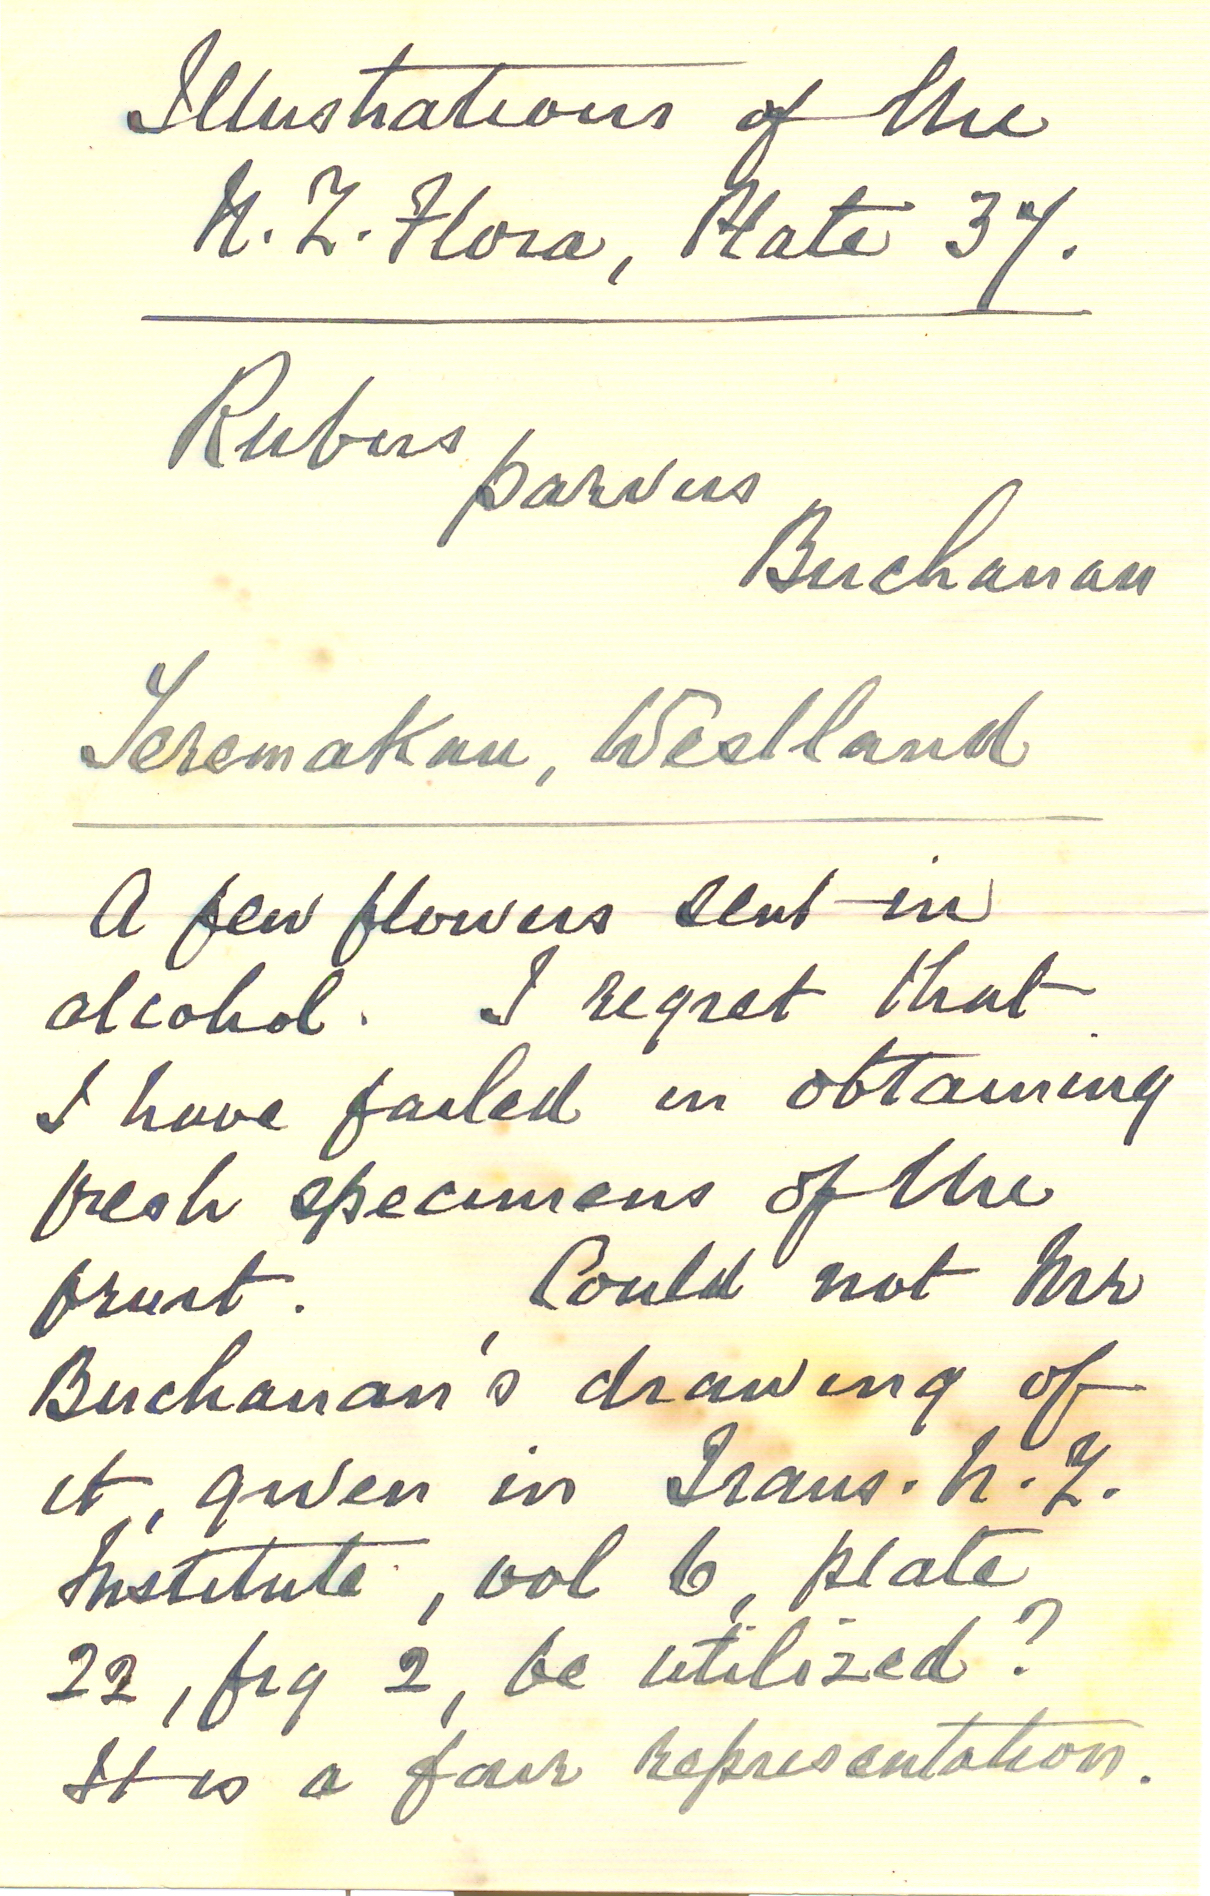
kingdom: Plantae
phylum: Tracheophyta
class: Magnoliopsida
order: Rosales
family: Rosaceae
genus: Rubus
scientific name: Rubus parvus
